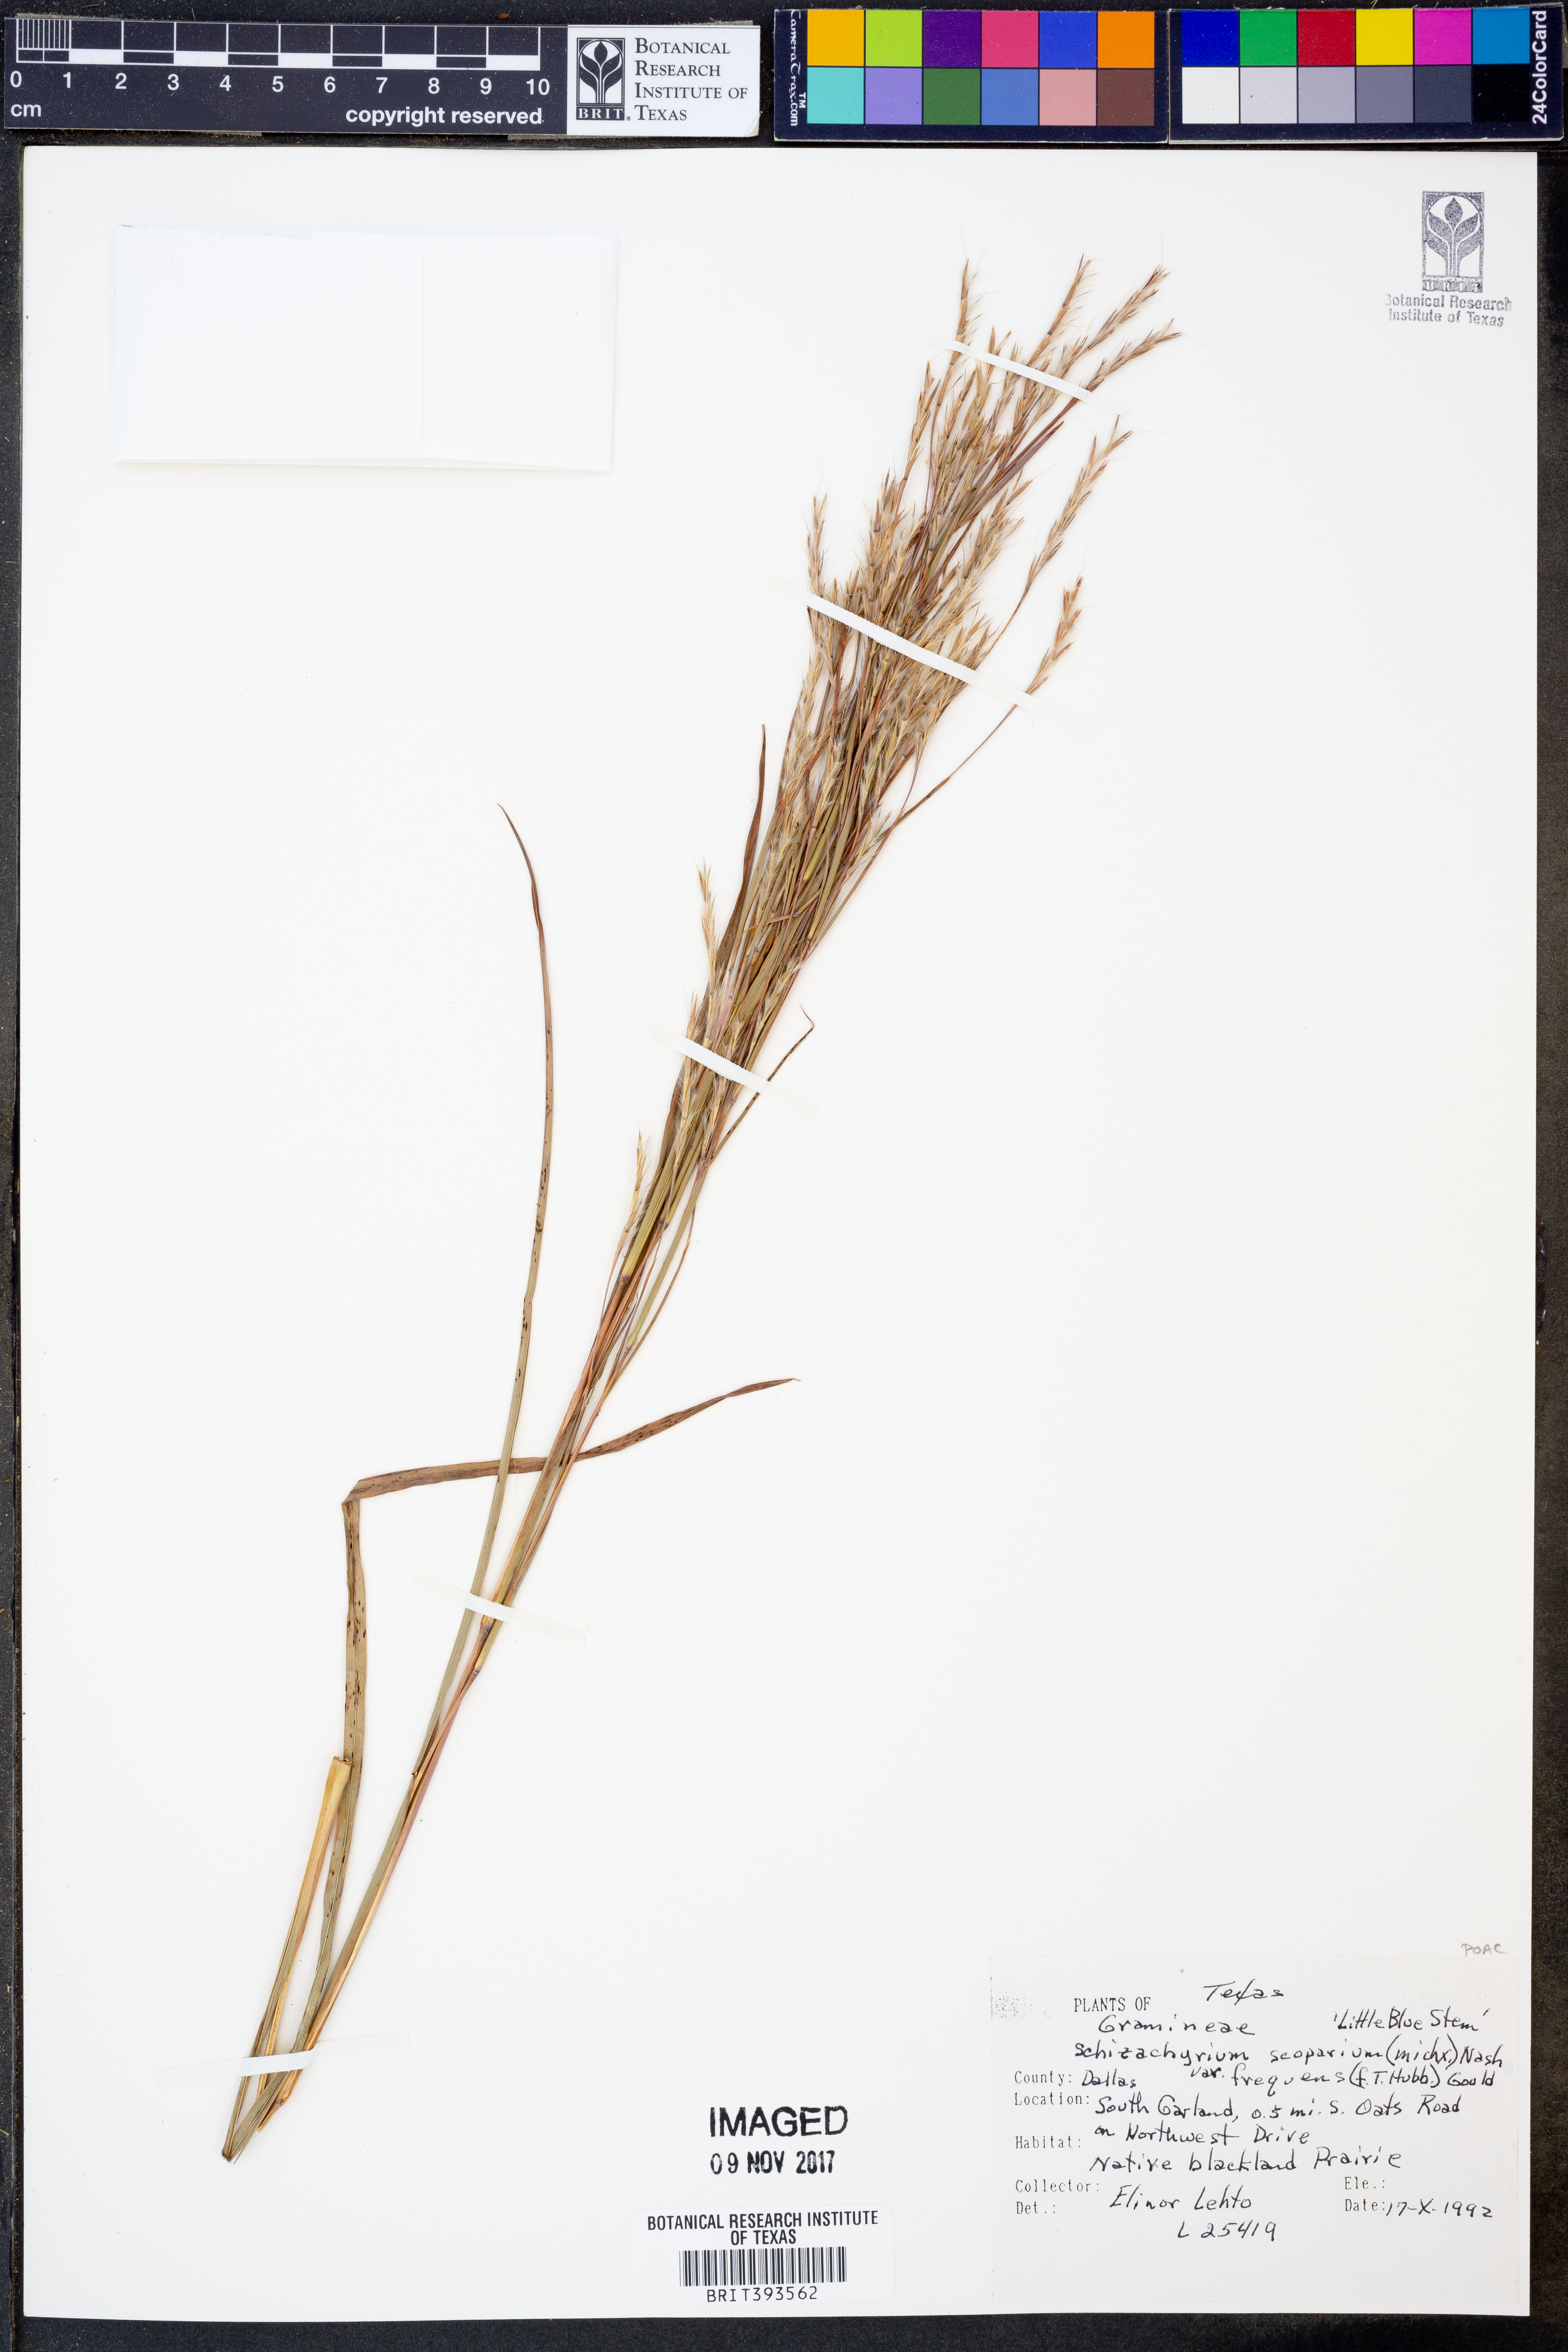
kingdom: Plantae
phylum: Tracheophyta
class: Liliopsida
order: Poales
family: Poaceae
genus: Schizachyrium
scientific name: Schizachyrium scoparium
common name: Little bluestem
